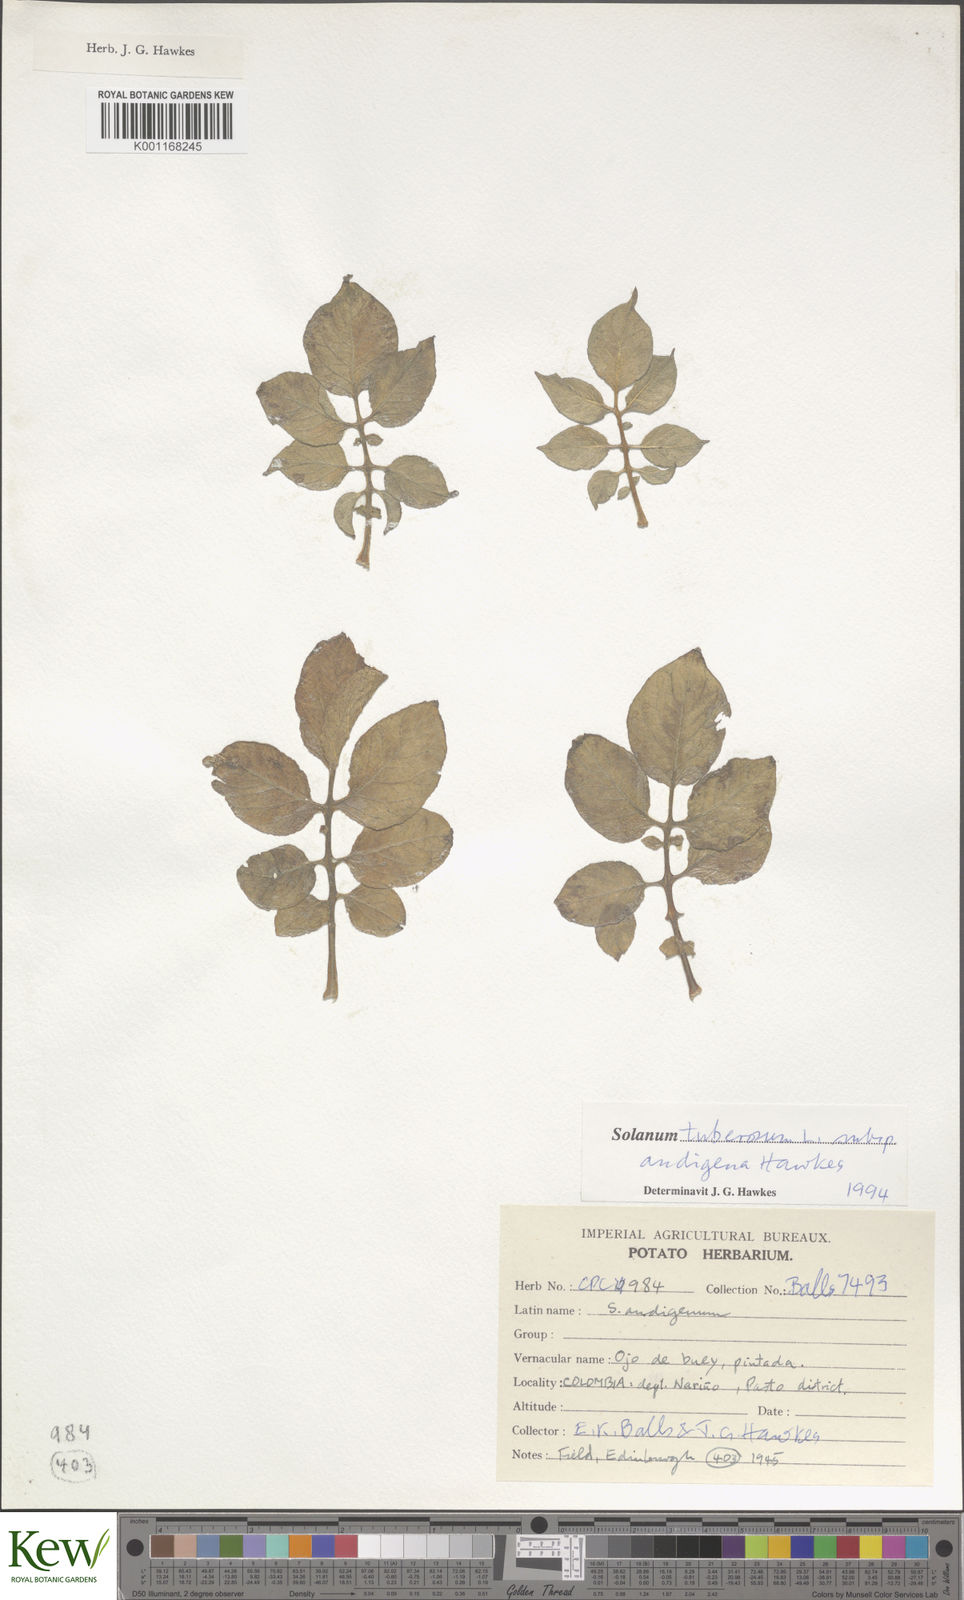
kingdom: Plantae
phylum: Tracheophyta
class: Magnoliopsida
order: Solanales
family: Solanaceae
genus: Solanum
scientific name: Solanum tuberosum
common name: Potato
